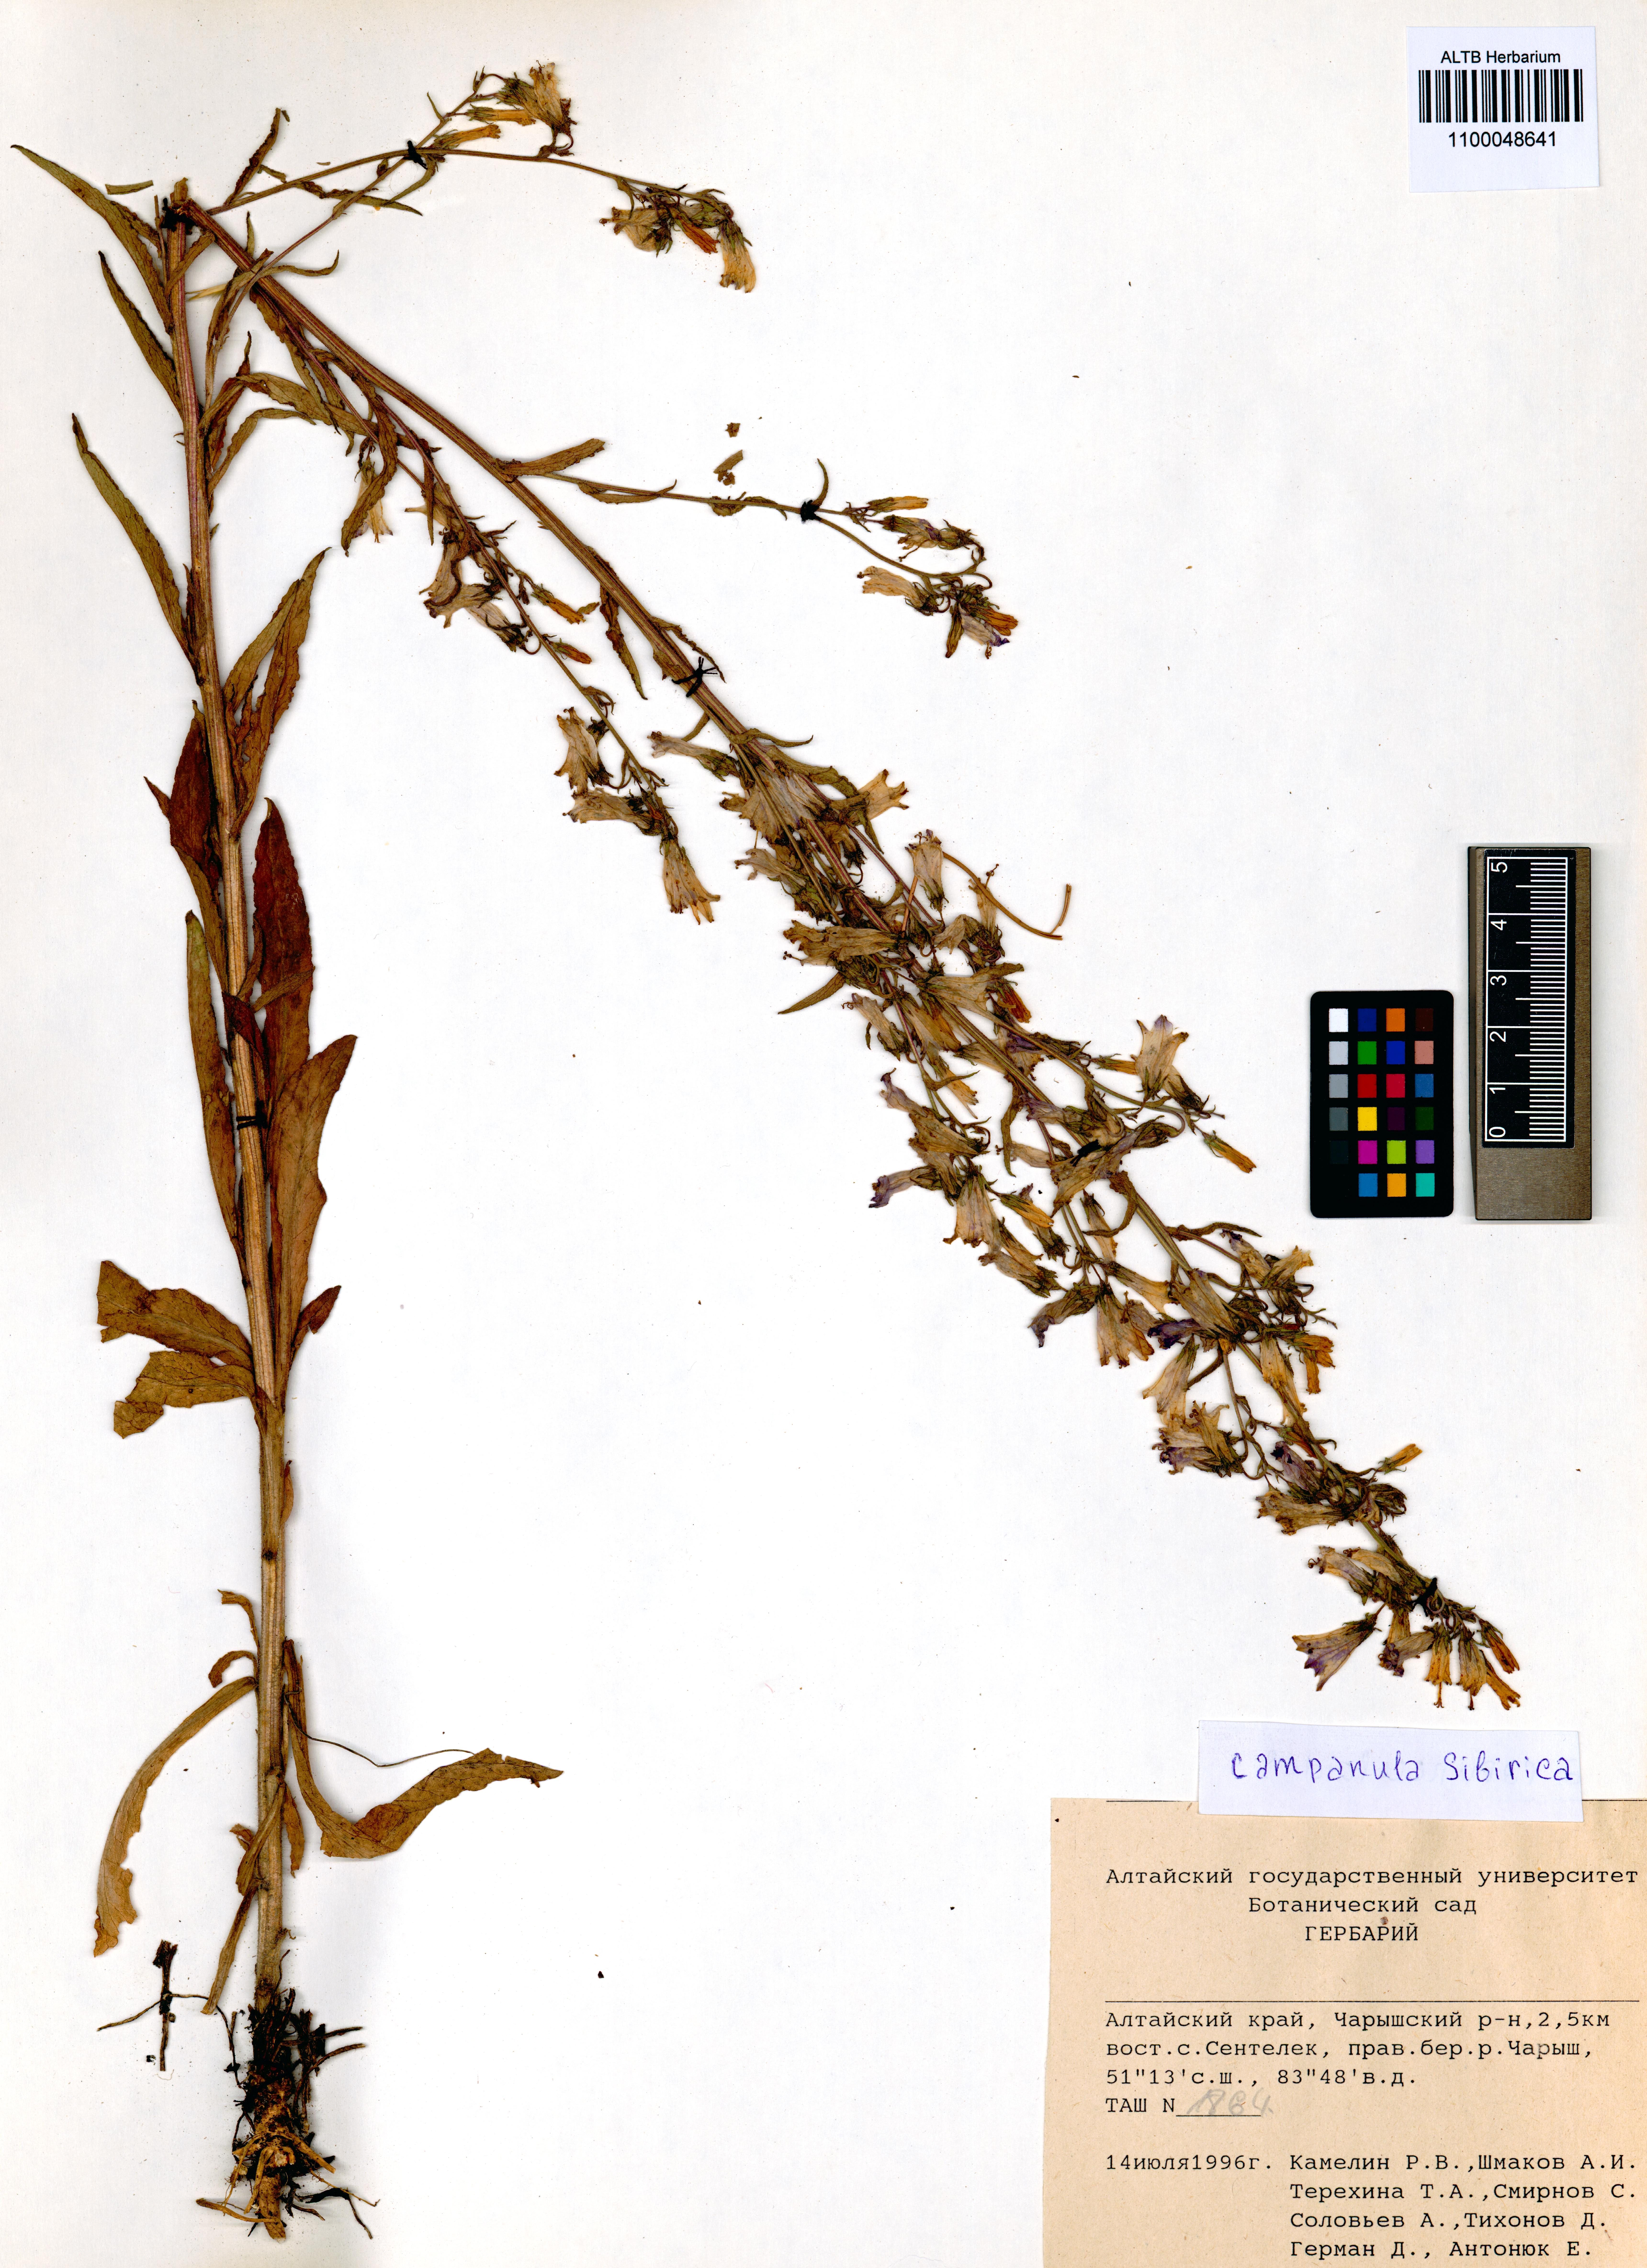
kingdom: Plantae
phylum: Tracheophyta
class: Magnoliopsida
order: Asterales
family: Campanulaceae
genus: Campanula
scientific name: Campanula sibirica
